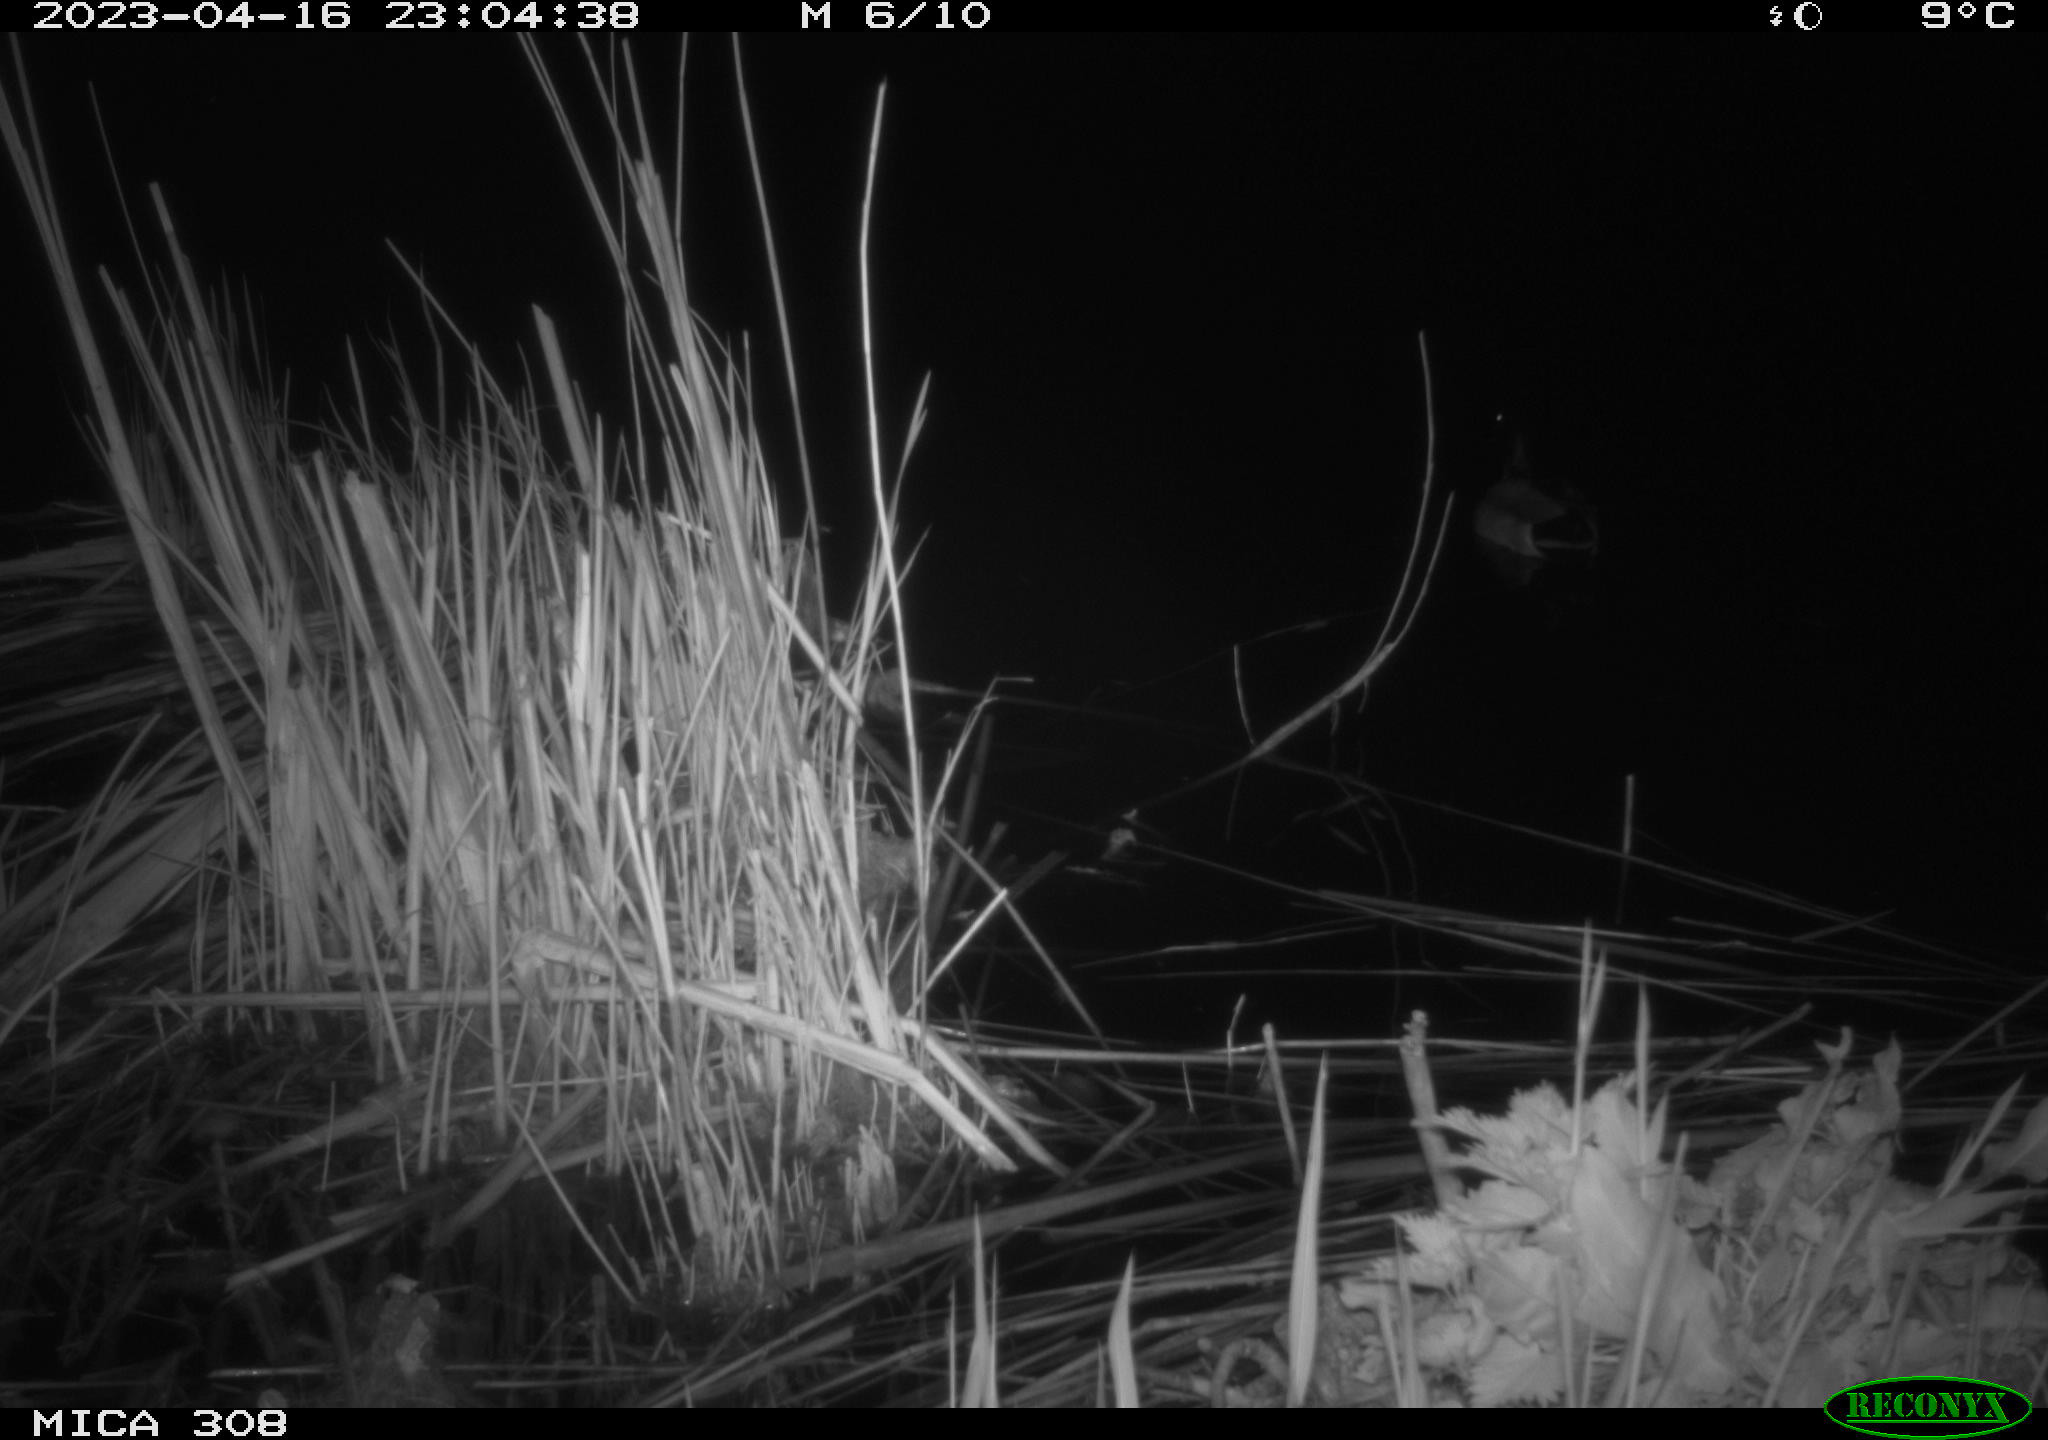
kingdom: Animalia
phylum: Chordata
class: Aves
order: Anseriformes
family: Anatidae
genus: Anas
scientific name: Anas
